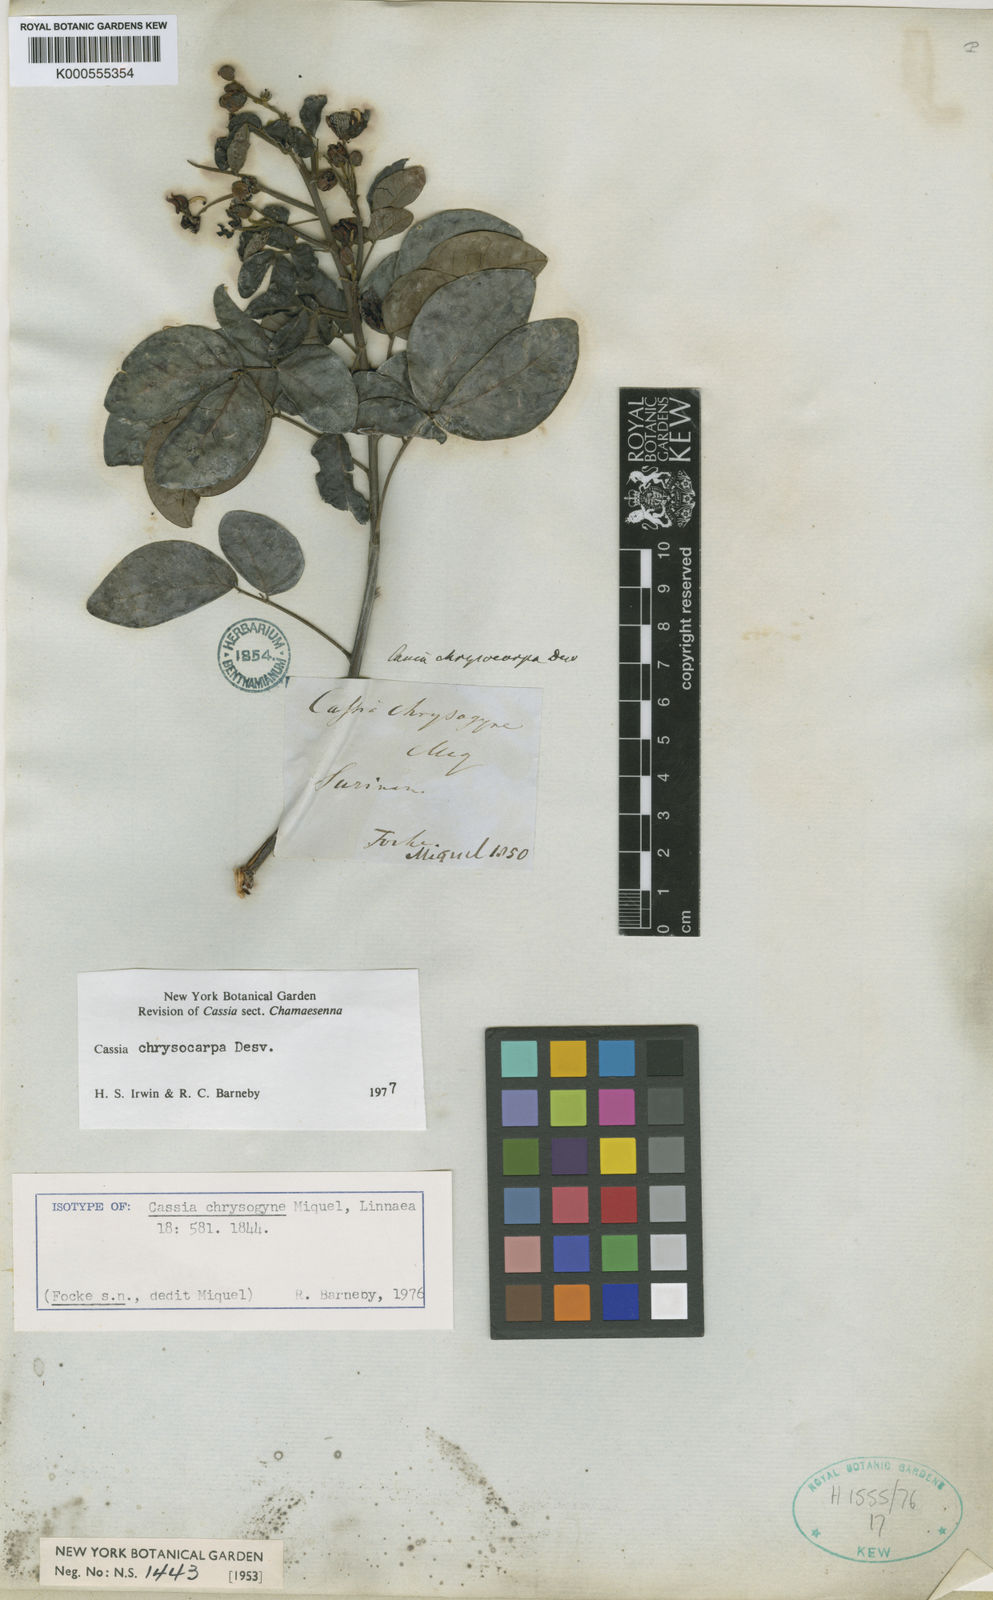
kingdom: Plantae
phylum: Tracheophyta
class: Magnoliopsida
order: Fabales
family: Fabaceae
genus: Senna
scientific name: Senna chrysocarpa
